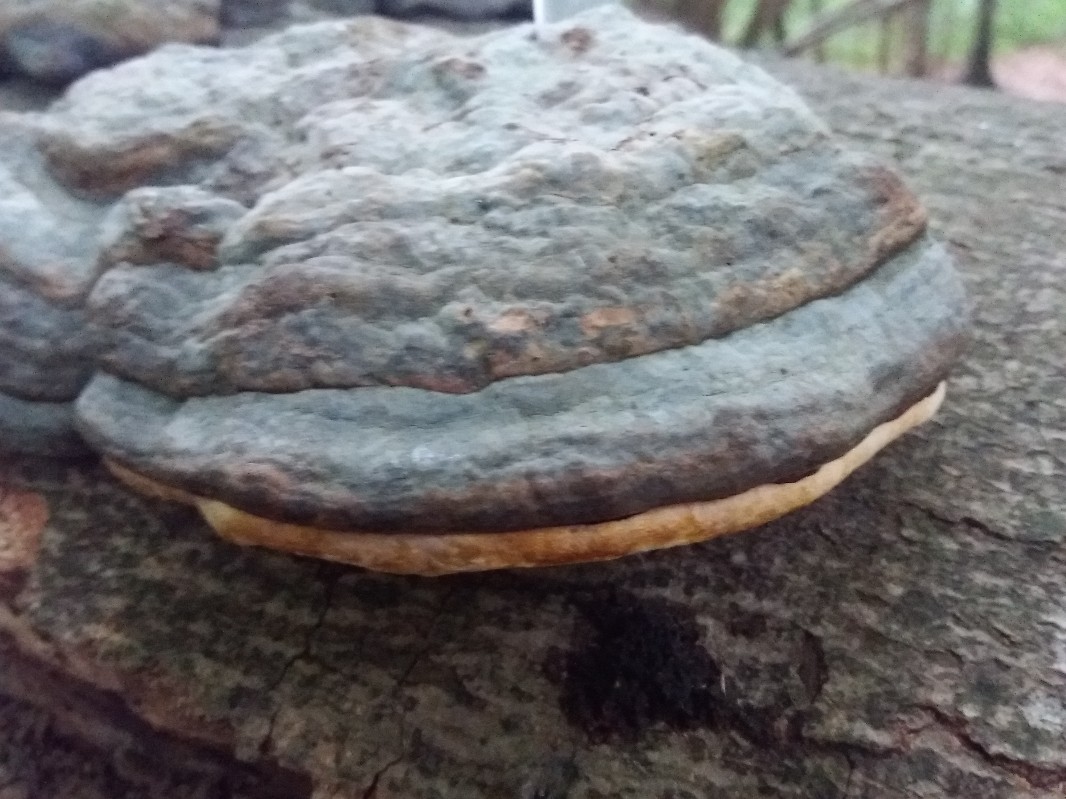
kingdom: Fungi
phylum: Basidiomycota
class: Agaricomycetes
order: Polyporales
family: Polyporaceae
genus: Fomes
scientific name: Fomes fomentarius
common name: tøndersvamp
